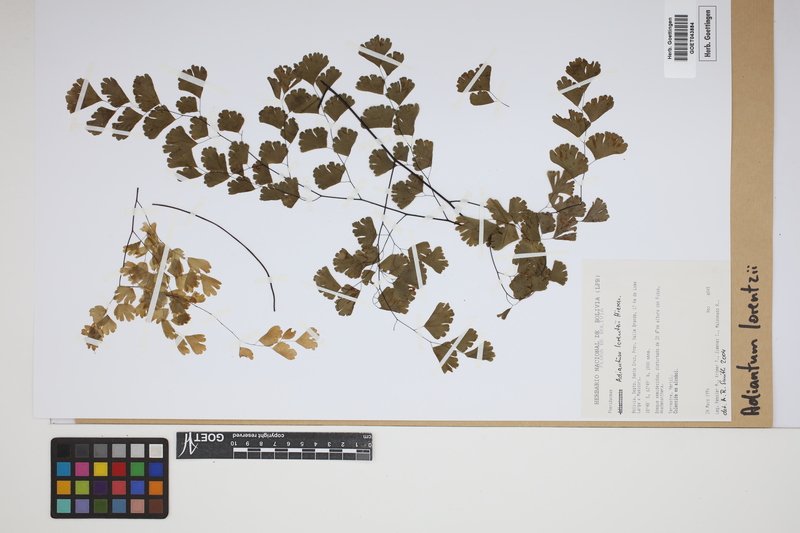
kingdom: Plantae
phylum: Tracheophyta
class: Polypodiopsida
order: Polypodiales
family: Pteridaceae
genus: Adiantum
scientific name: Adiantum lorentzii
